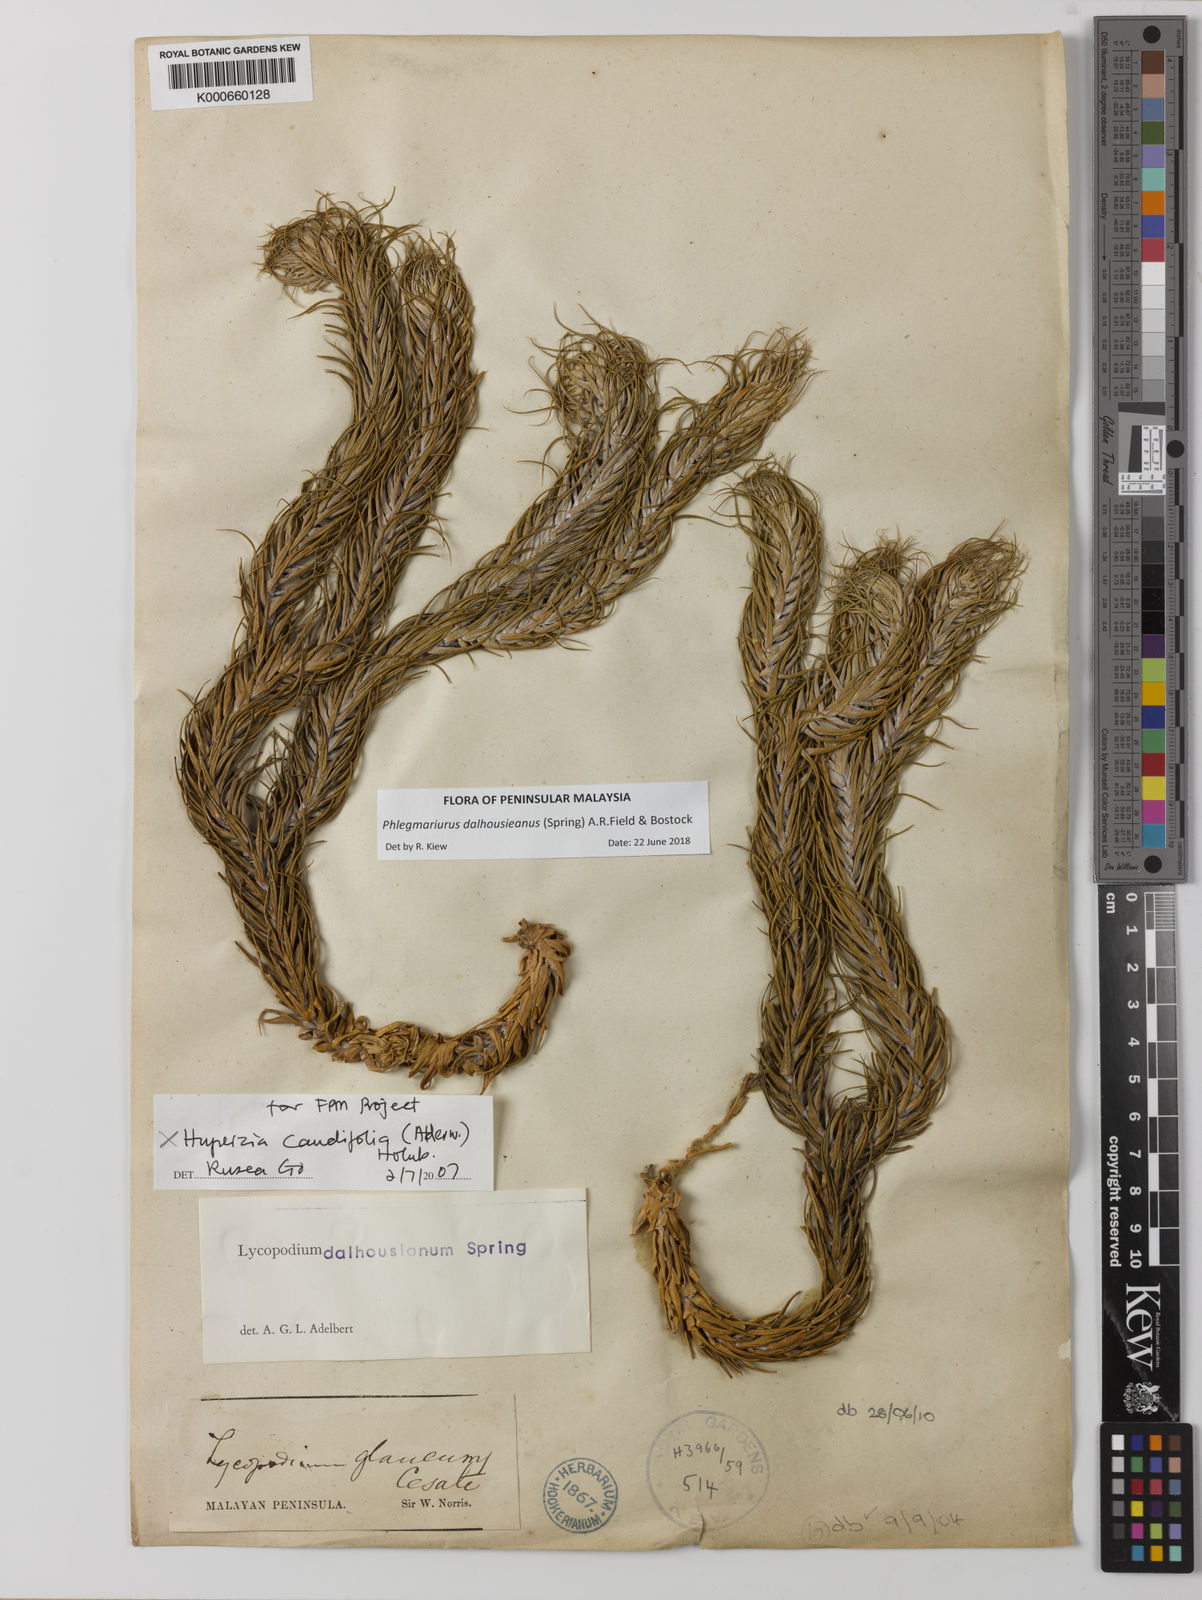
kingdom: Plantae
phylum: Tracheophyta
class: Lycopodiopsida
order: Lycopodiales
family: Lycopodiaceae
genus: Phlegmariurus
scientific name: Phlegmariurus dalhousieanus
